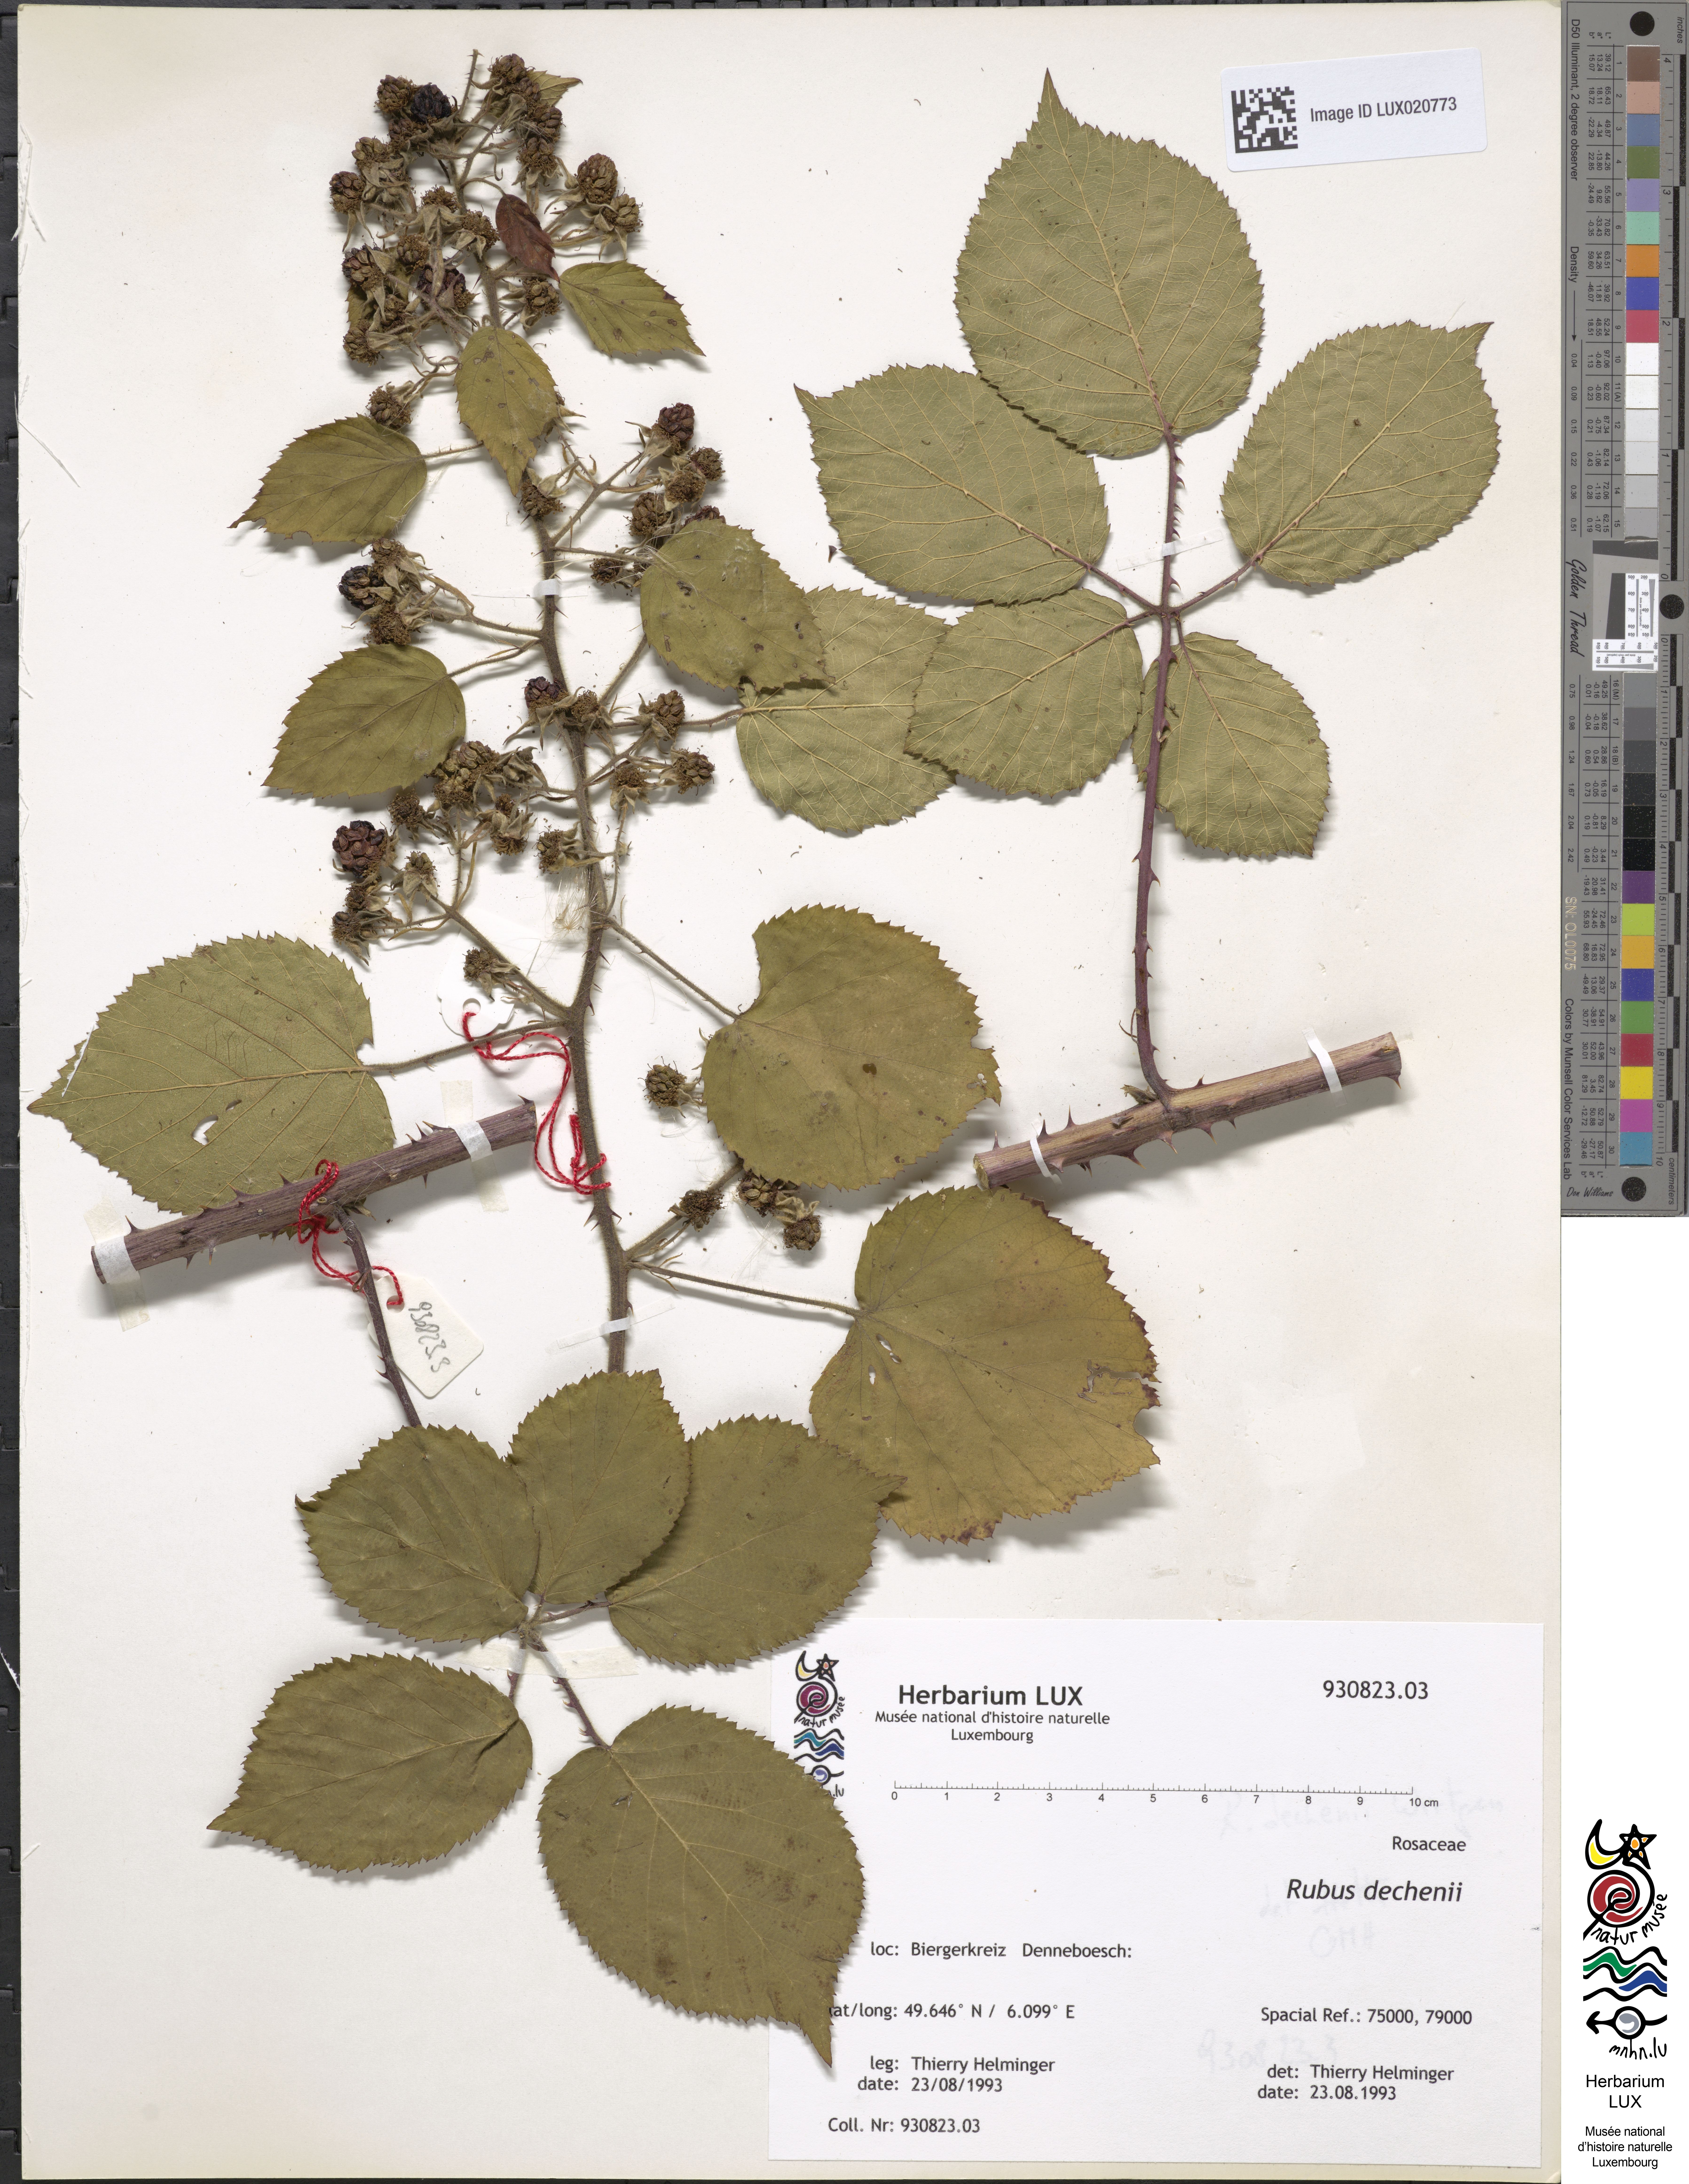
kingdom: Plantae
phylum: Tracheophyta
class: Magnoliopsida
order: Rosales
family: Rosaceae
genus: Rubus
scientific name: Rubus
